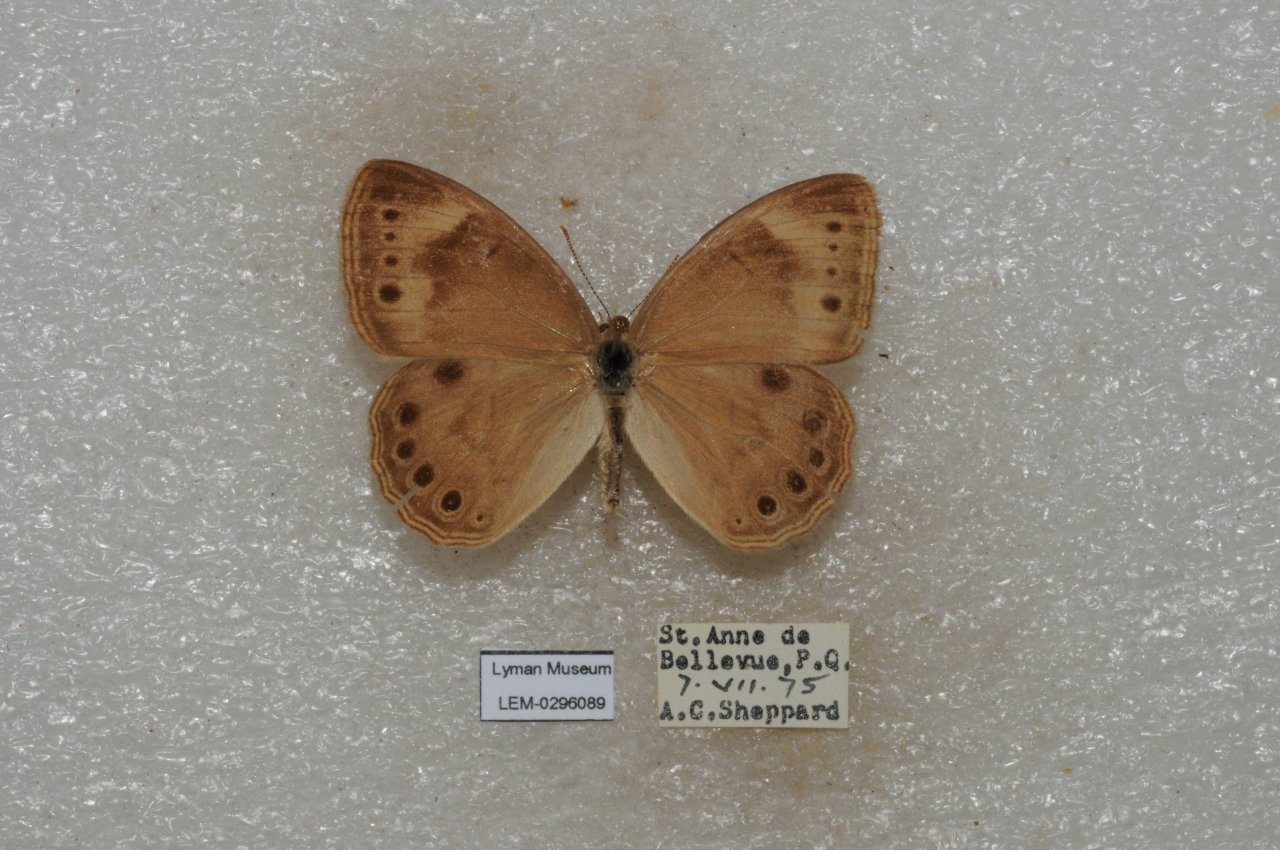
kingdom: Animalia
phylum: Arthropoda
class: Insecta
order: Lepidoptera
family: Nymphalidae
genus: Lethe
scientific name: Lethe eurydice
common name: Eyed Brown
